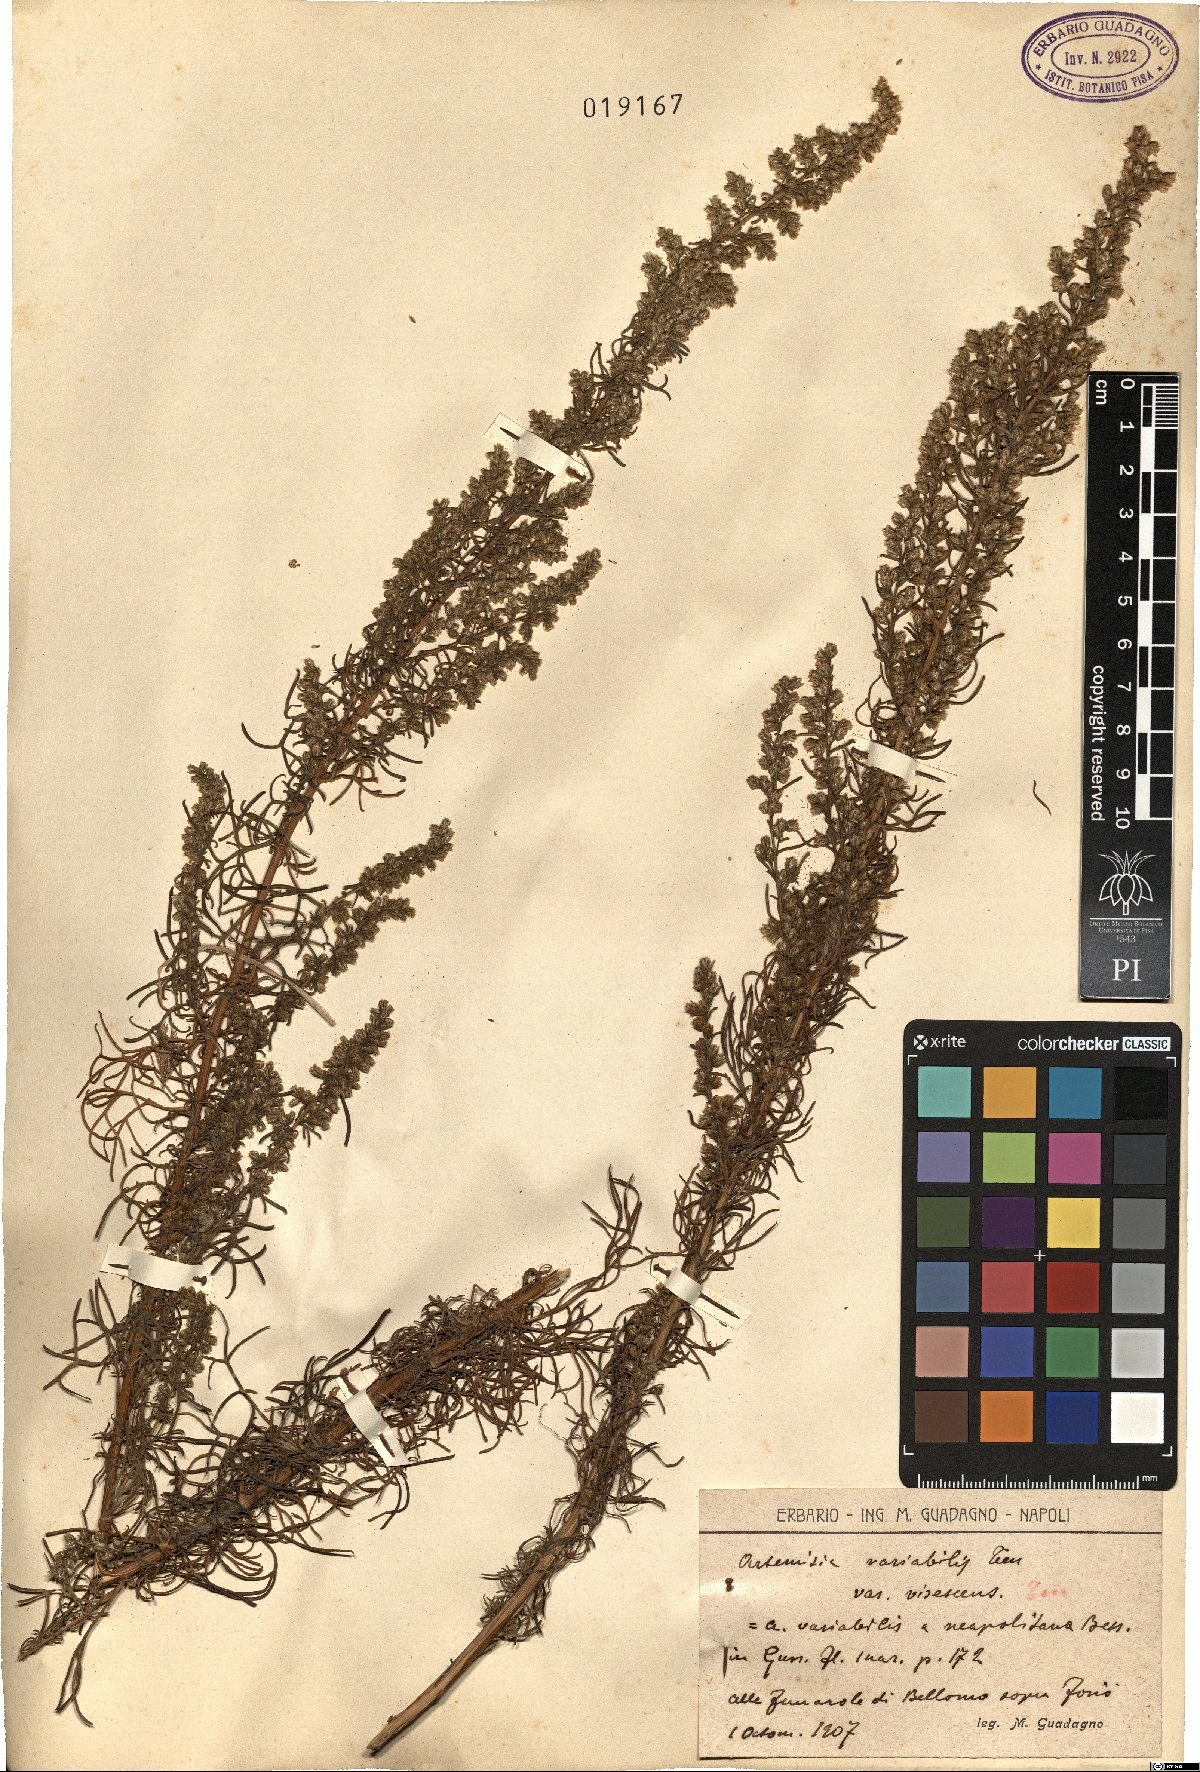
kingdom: Plantae
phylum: Tracheophyta
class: Magnoliopsida
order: Asterales
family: Asteraceae
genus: Artemisia
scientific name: Artemisia campestris
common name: Field wormwood
